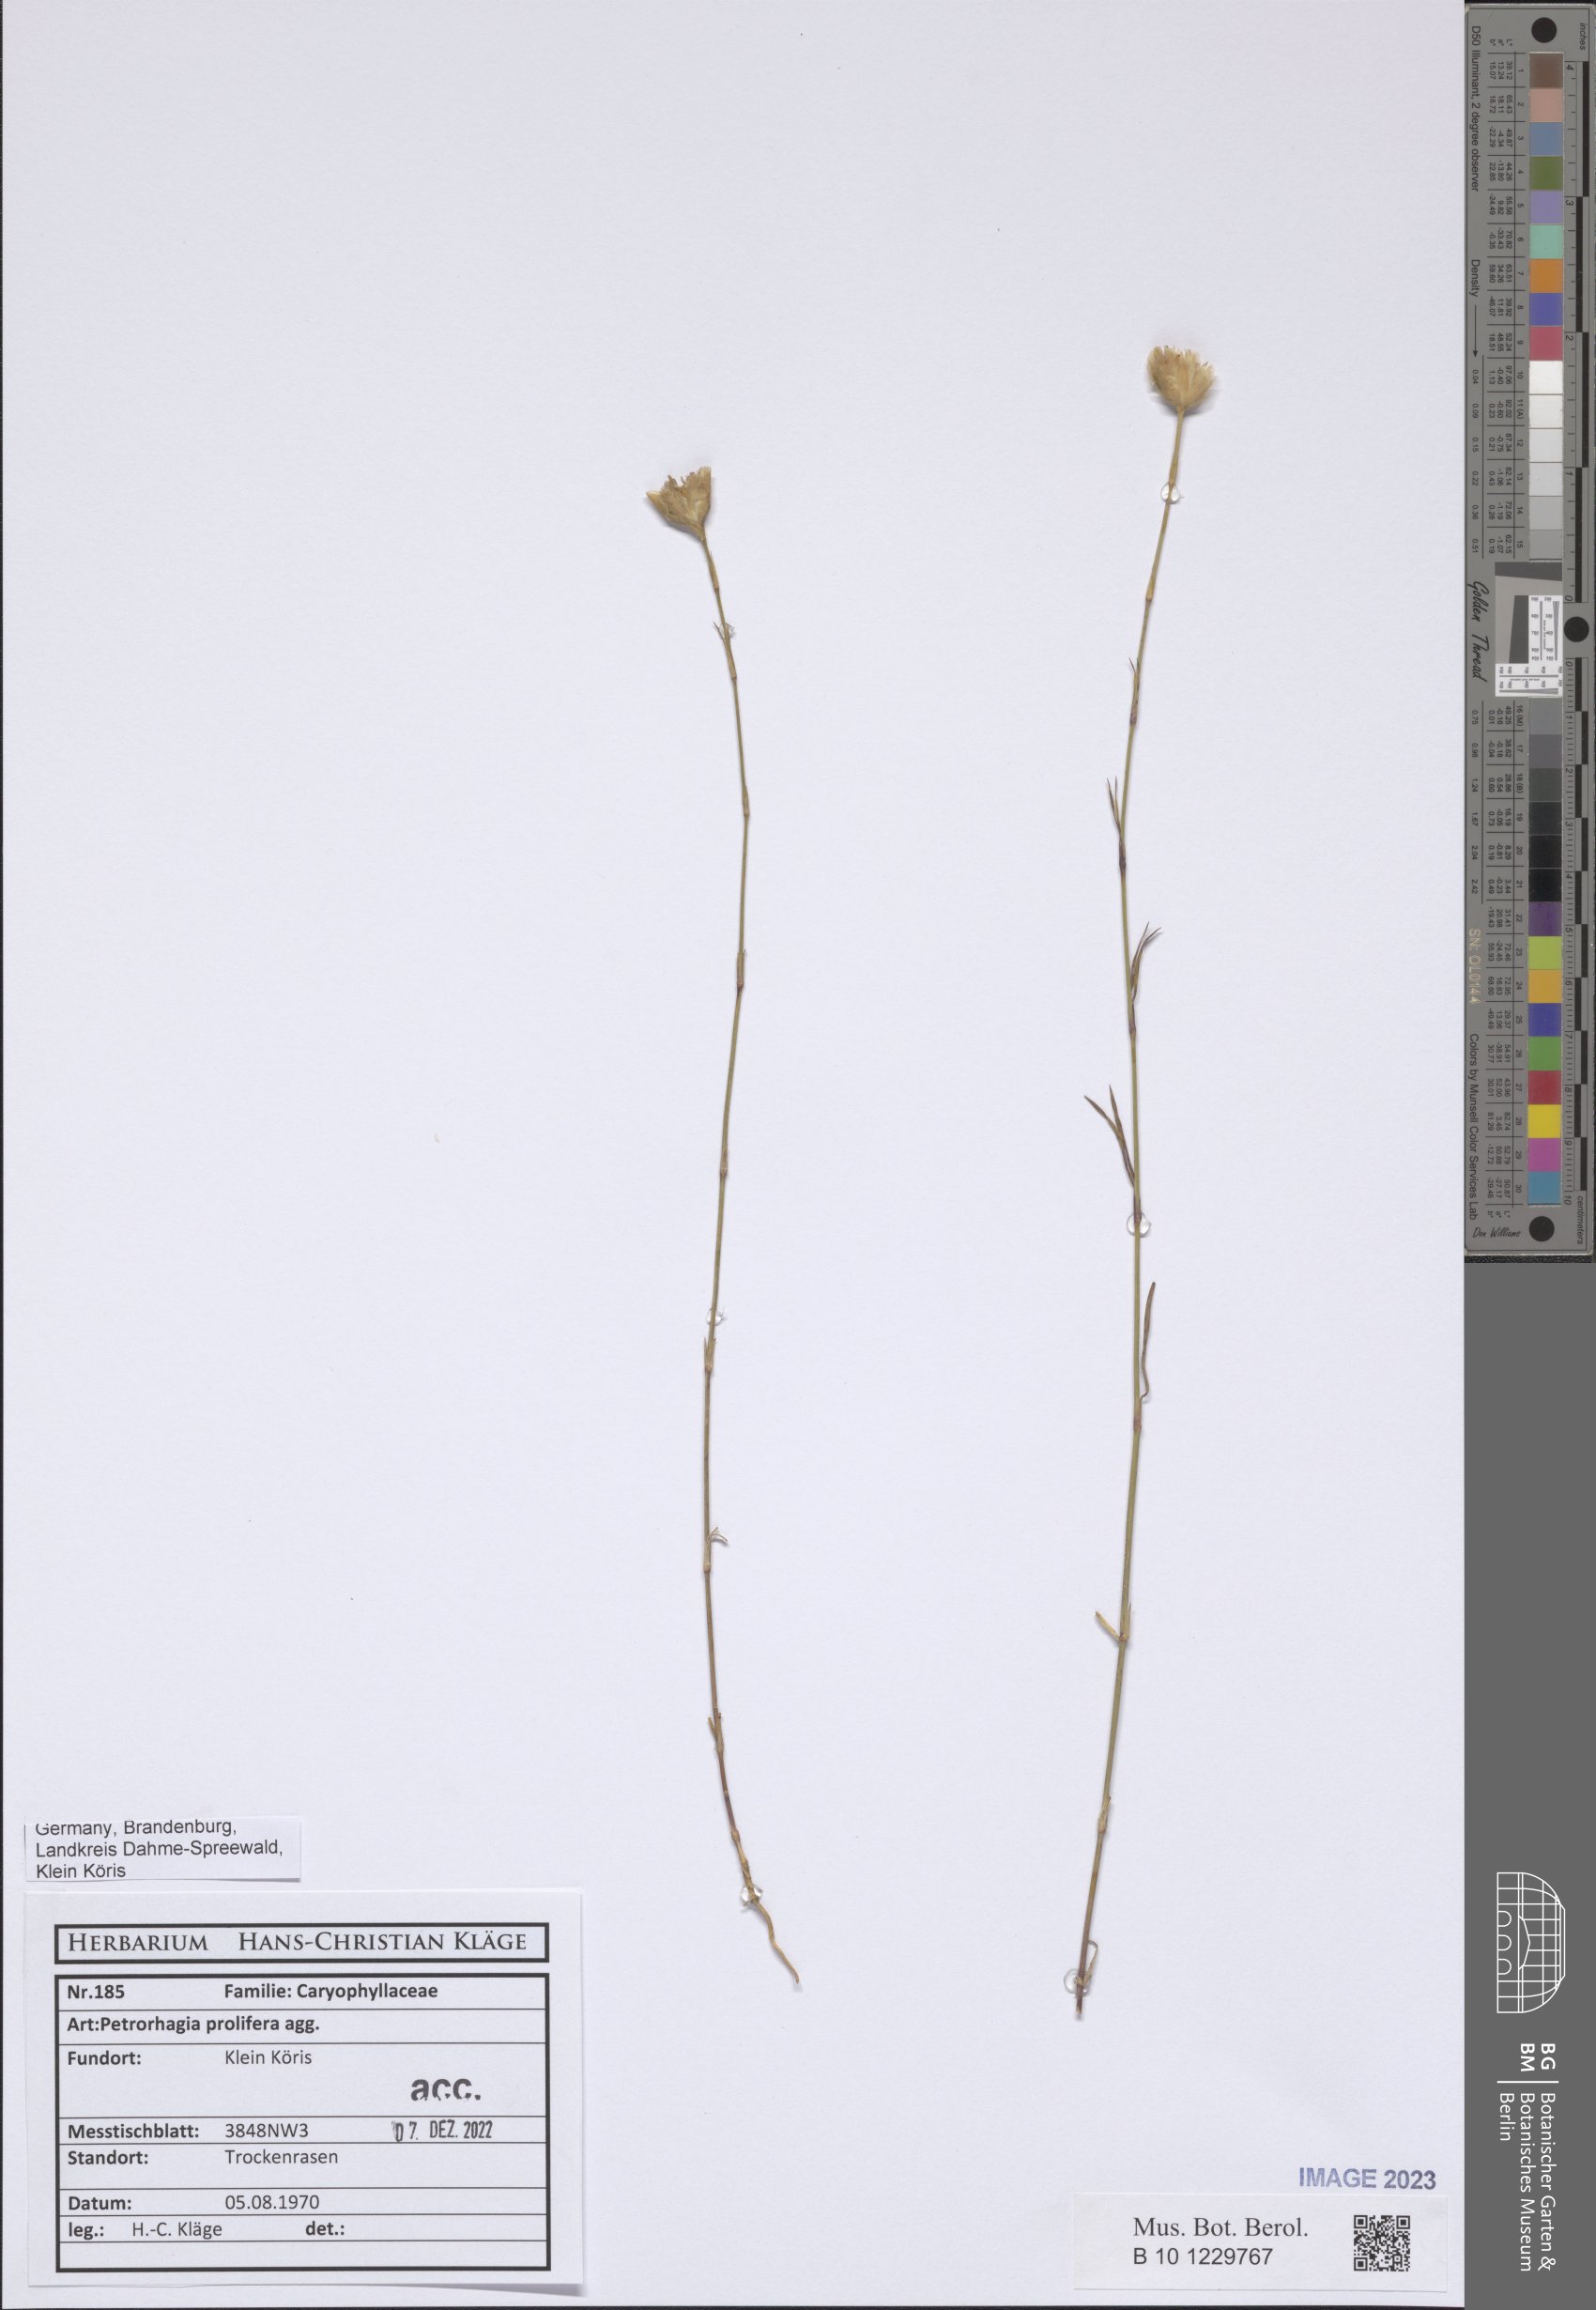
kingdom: Plantae
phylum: Tracheophyta
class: Magnoliopsida
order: Caryophyllales
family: Caryophyllaceae
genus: Petrorhagia
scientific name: Petrorhagia prolifera
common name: Proliferous pink
